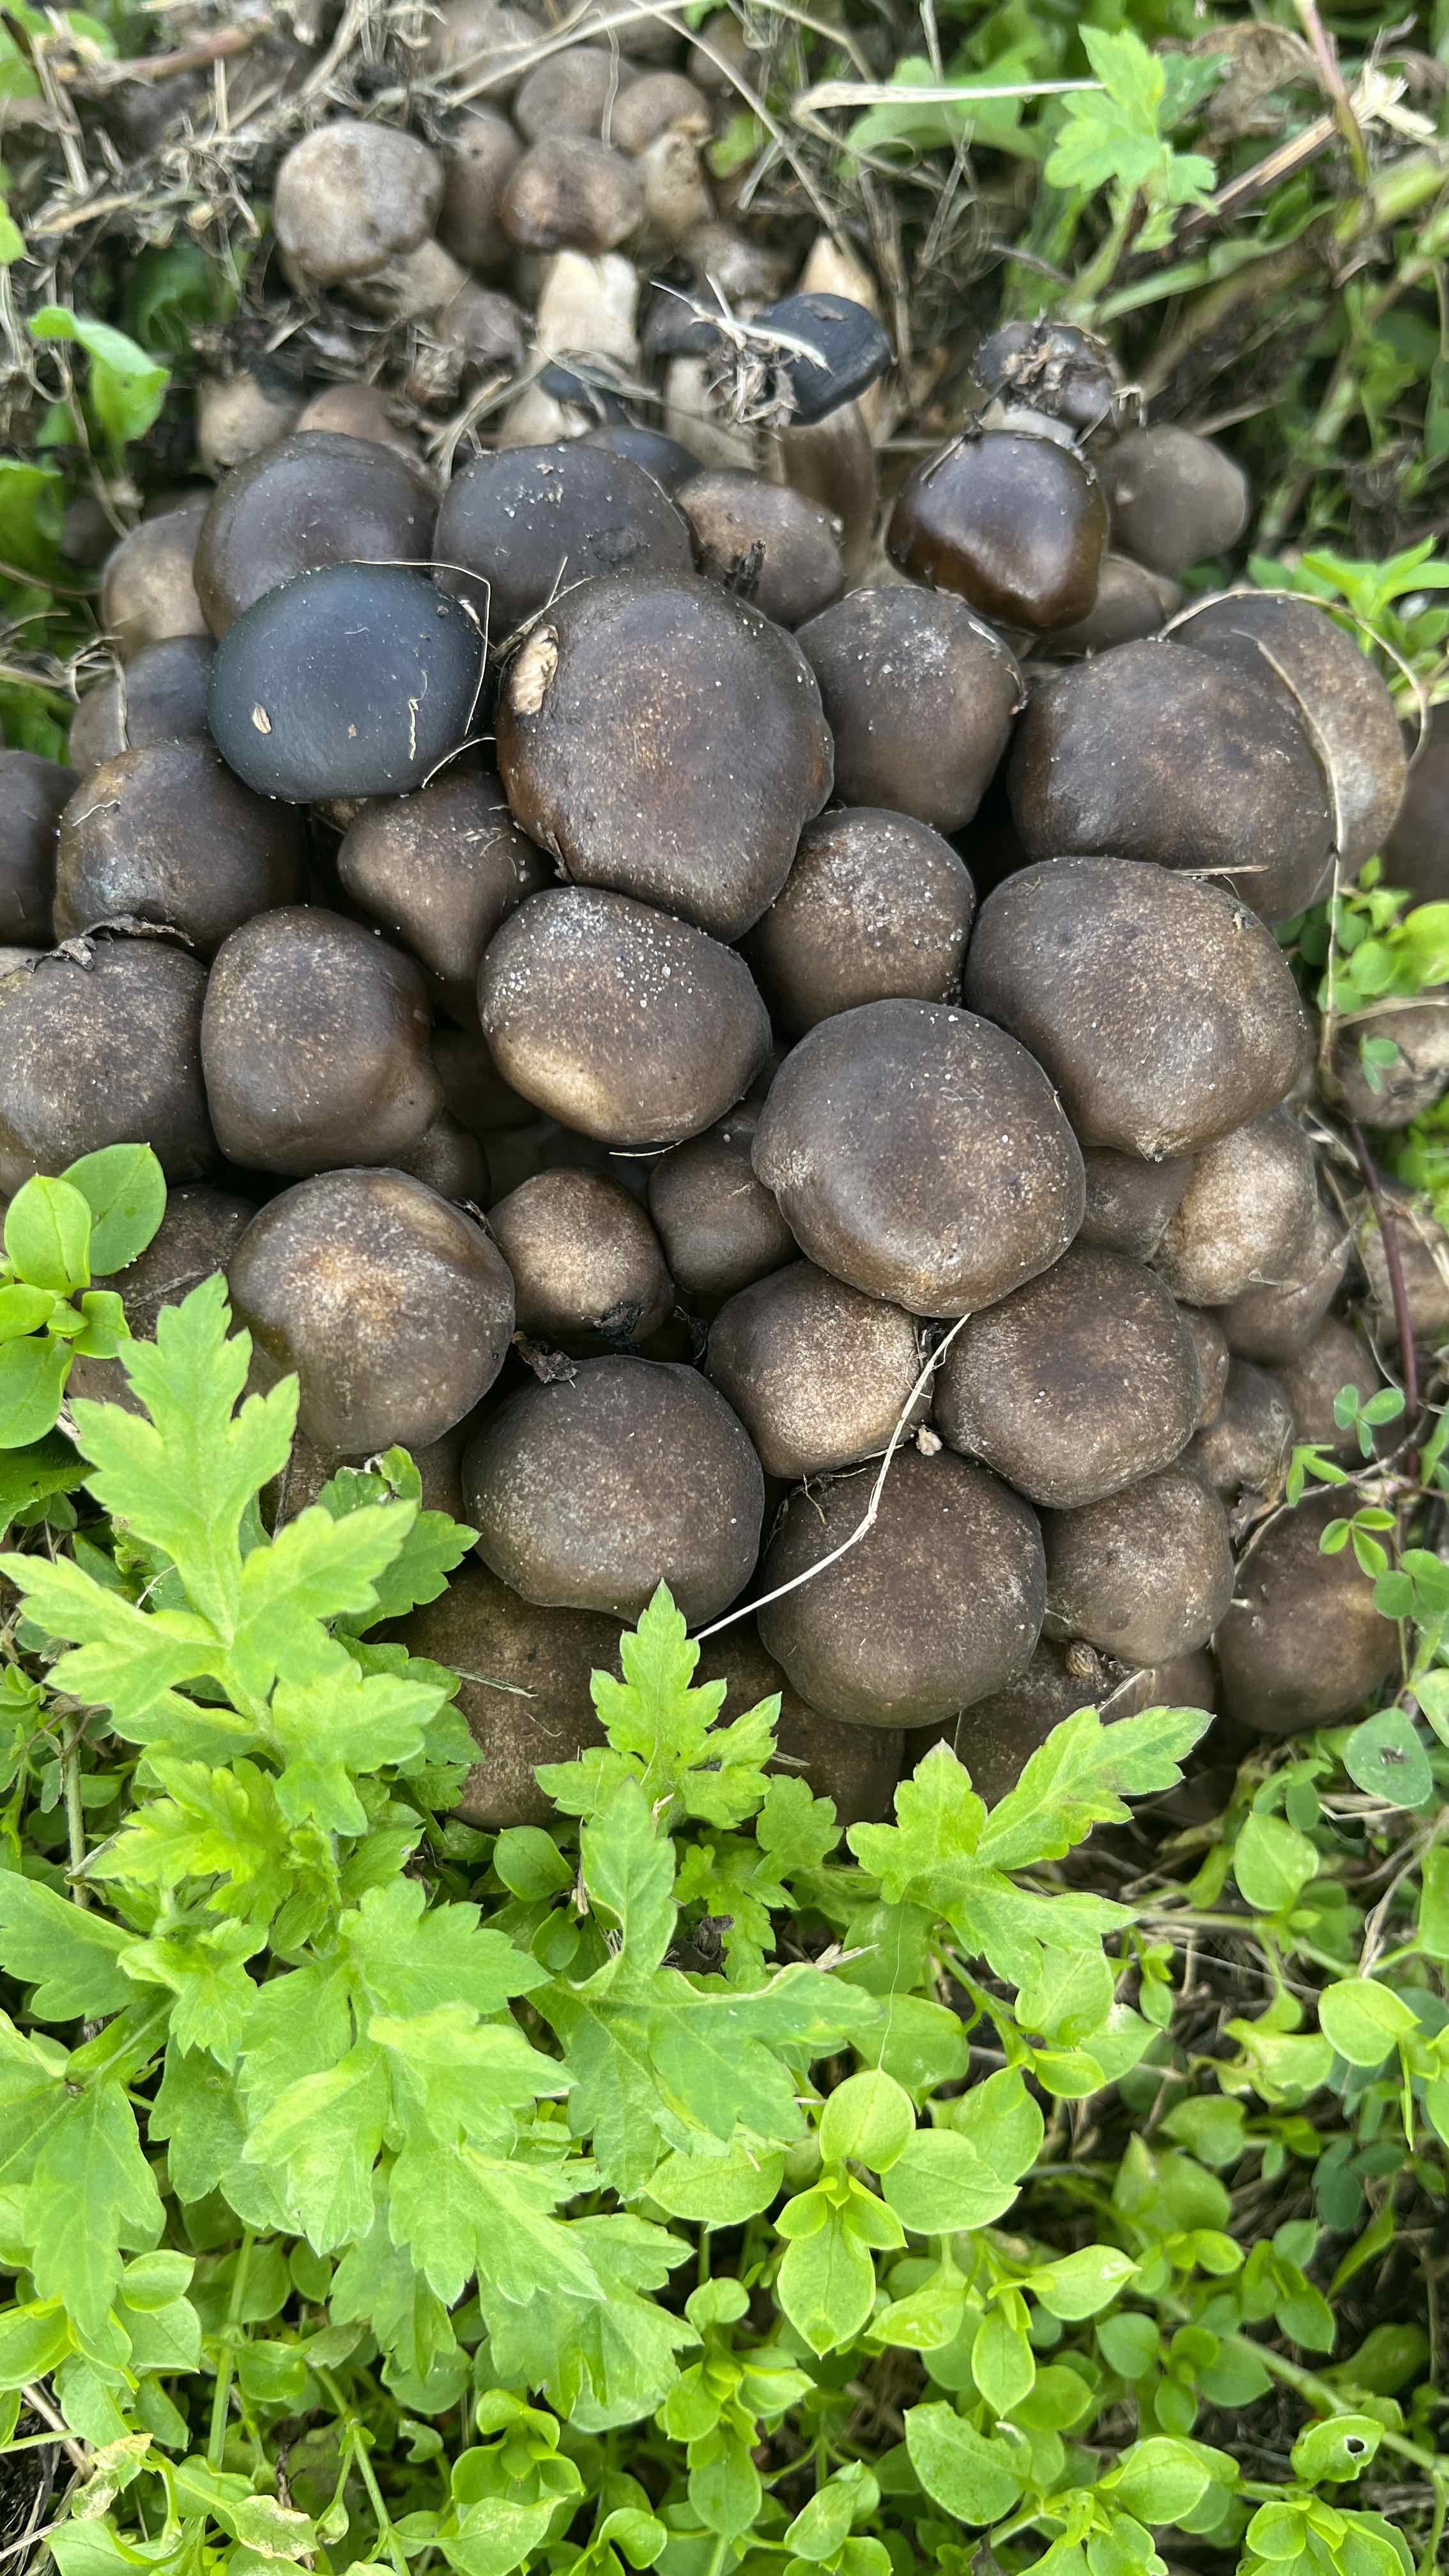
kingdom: Fungi
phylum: Basidiomycota
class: Agaricomycetes
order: Agaricales
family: Lyophyllaceae
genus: Lyophyllum
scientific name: Lyophyllum decastes
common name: røggrå gråblad
